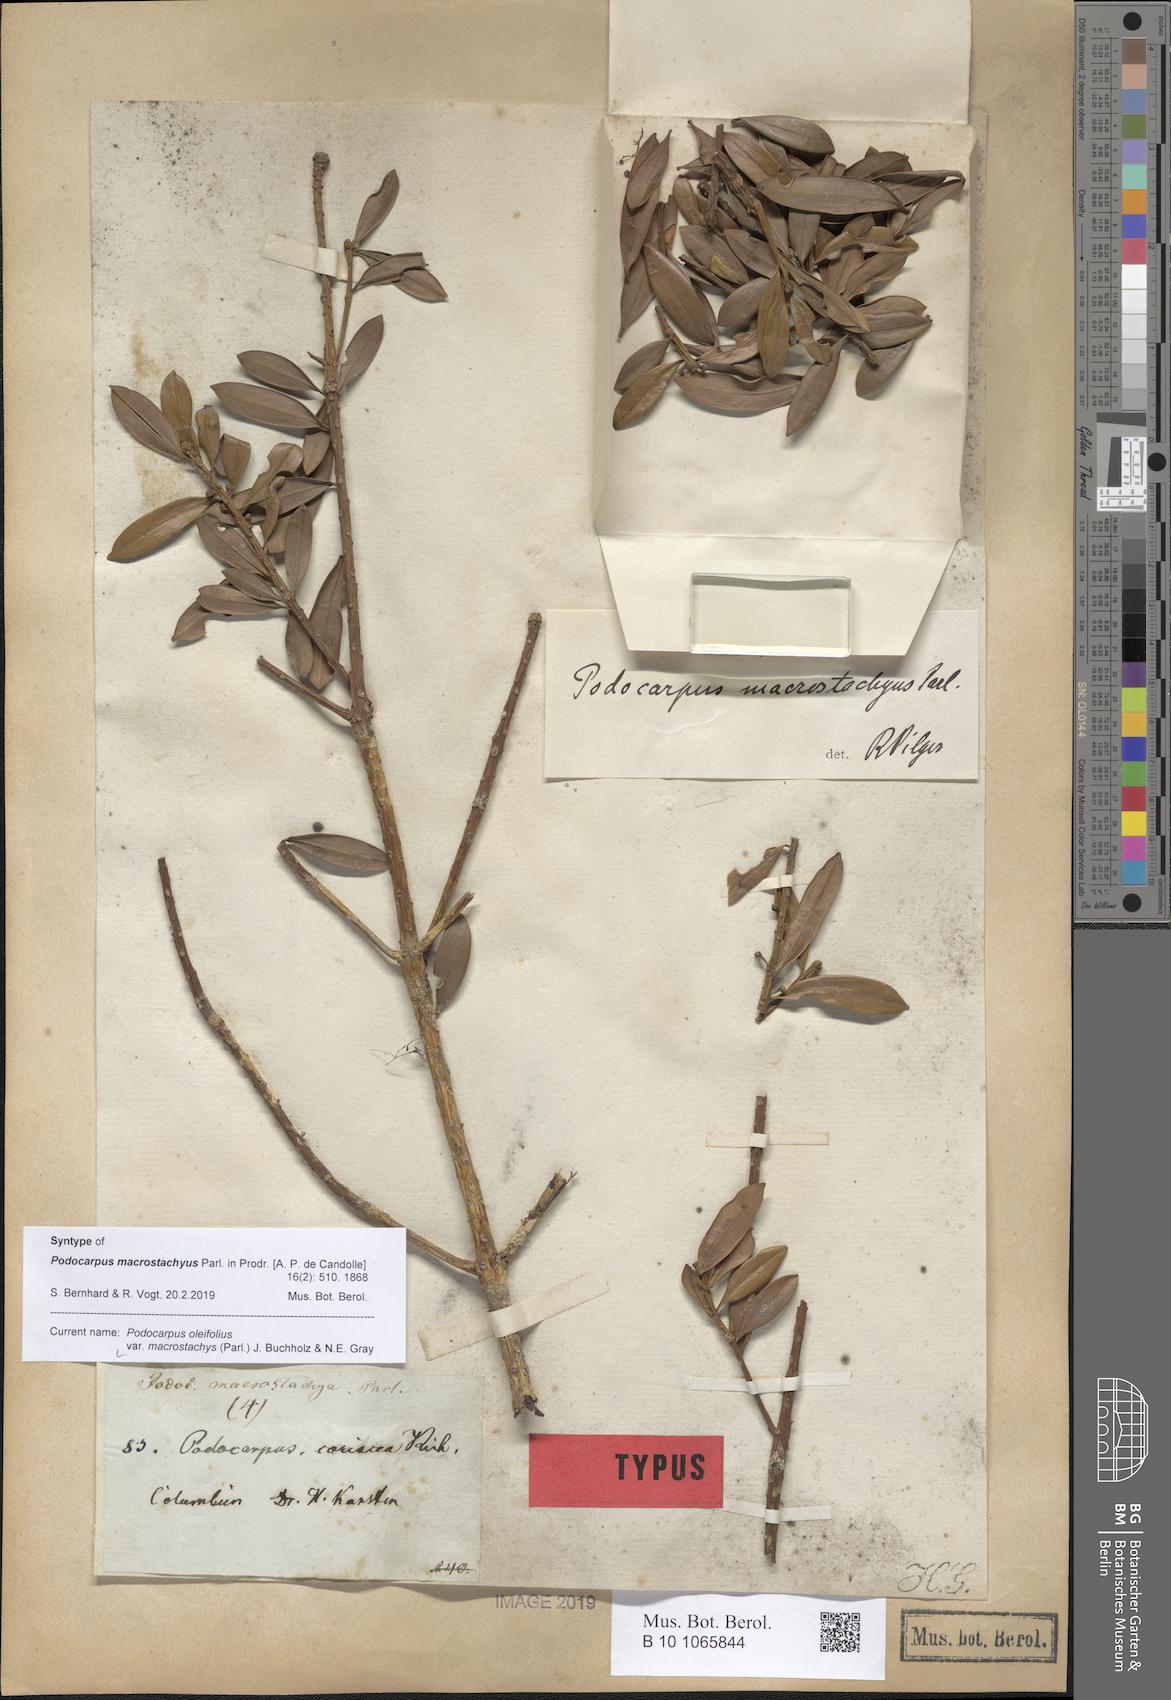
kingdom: Plantae
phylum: Tracheophyta
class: Pinopsida
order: Pinales
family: Podocarpaceae
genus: Podocarpus
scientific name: Podocarpus oleifolius
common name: Olive-leaf podoberry
